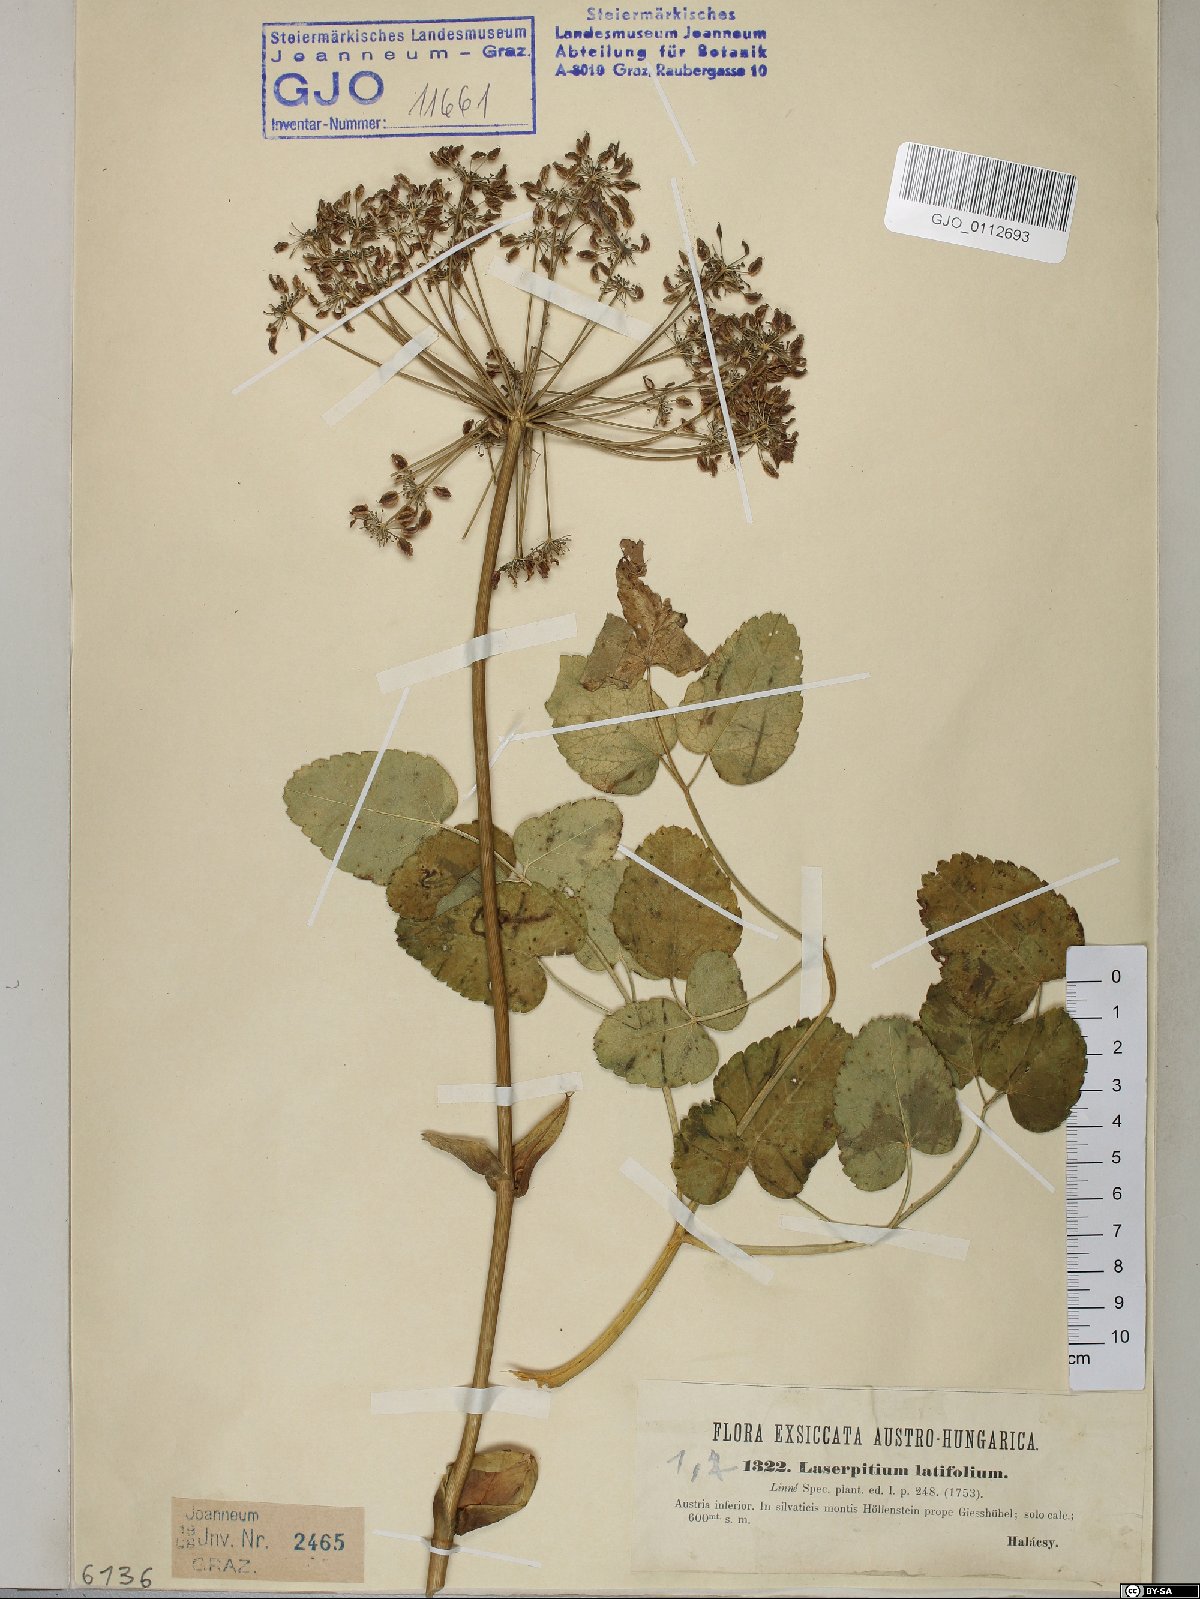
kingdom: Plantae
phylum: Tracheophyta
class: Magnoliopsida
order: Apiales
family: Apiaceae
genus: Laserpitium
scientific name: Laserpitium latifolium
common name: Broadleaf sermountain
